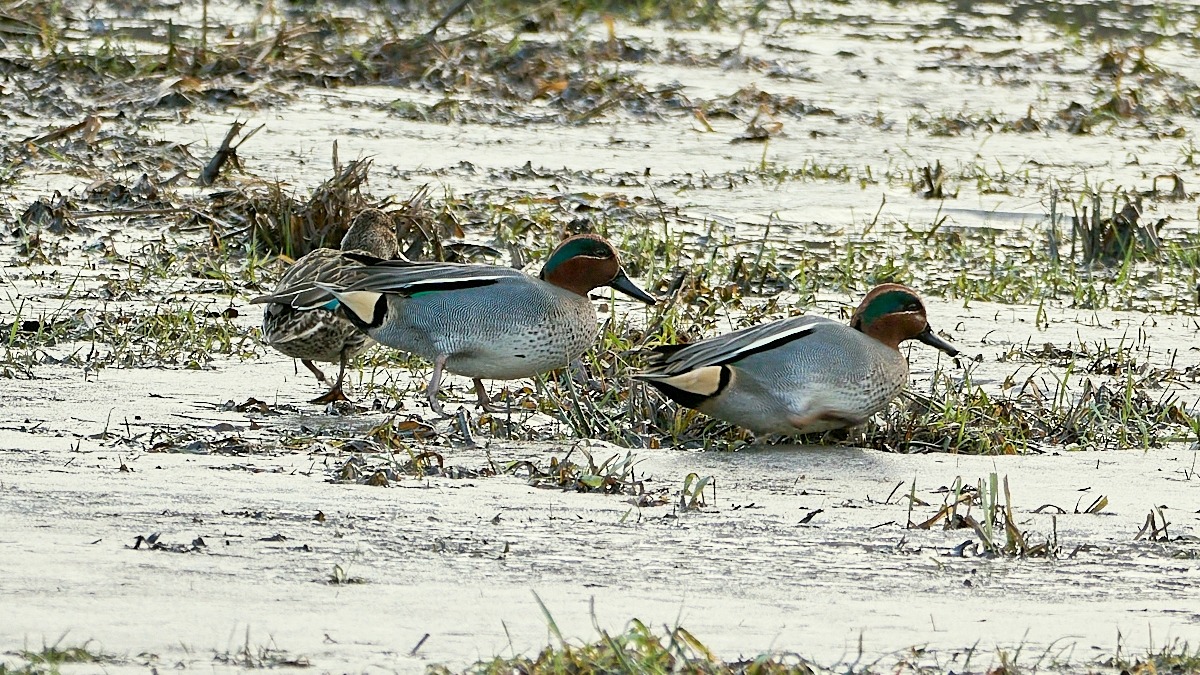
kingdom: Animalia
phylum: Chordata
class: Aves
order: Anseriformes
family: Anatidae
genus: Anas
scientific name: Anas crecca
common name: Krikand
